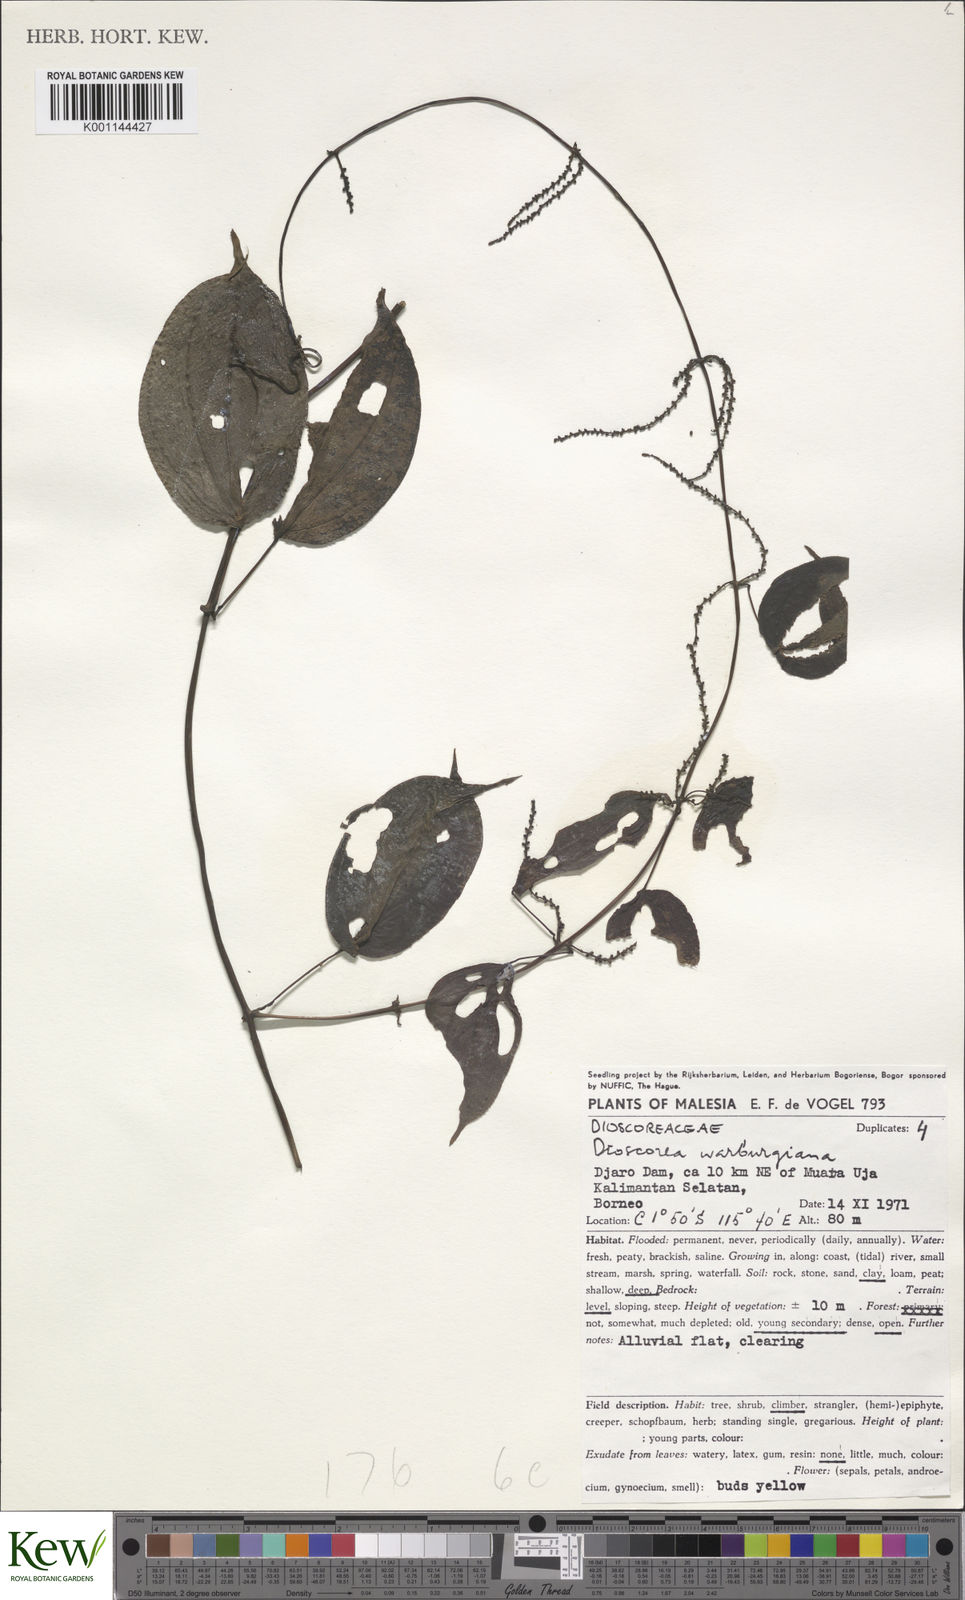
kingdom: Plantae
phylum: Tracheophyta
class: Liliopsida
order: Dioscoreales
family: Dioscoreaceae
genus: Dioscorea
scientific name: Dioscorea warburgiana
